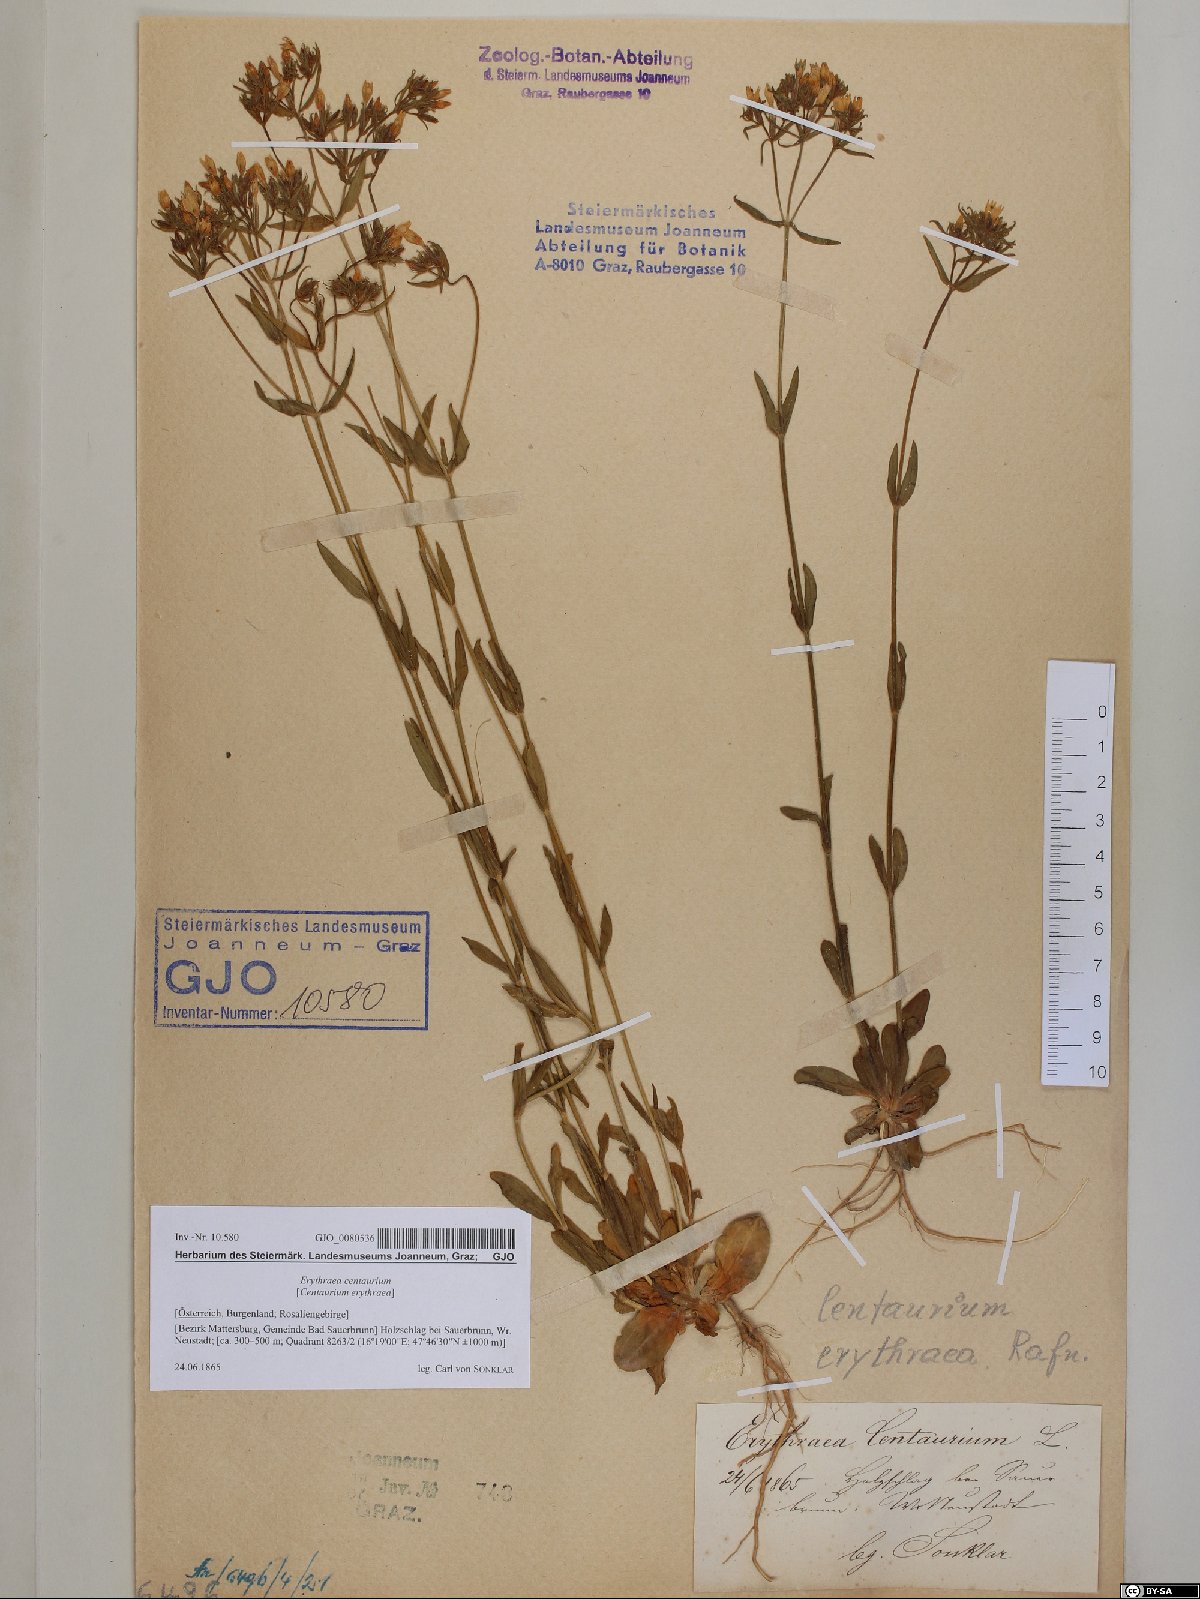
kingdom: Plantae
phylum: Tracheophyta
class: Magnoliopsida
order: Gentianales
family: Gentianaceae
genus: Centaurium
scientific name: Centaurium erythraea
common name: Common centaury
